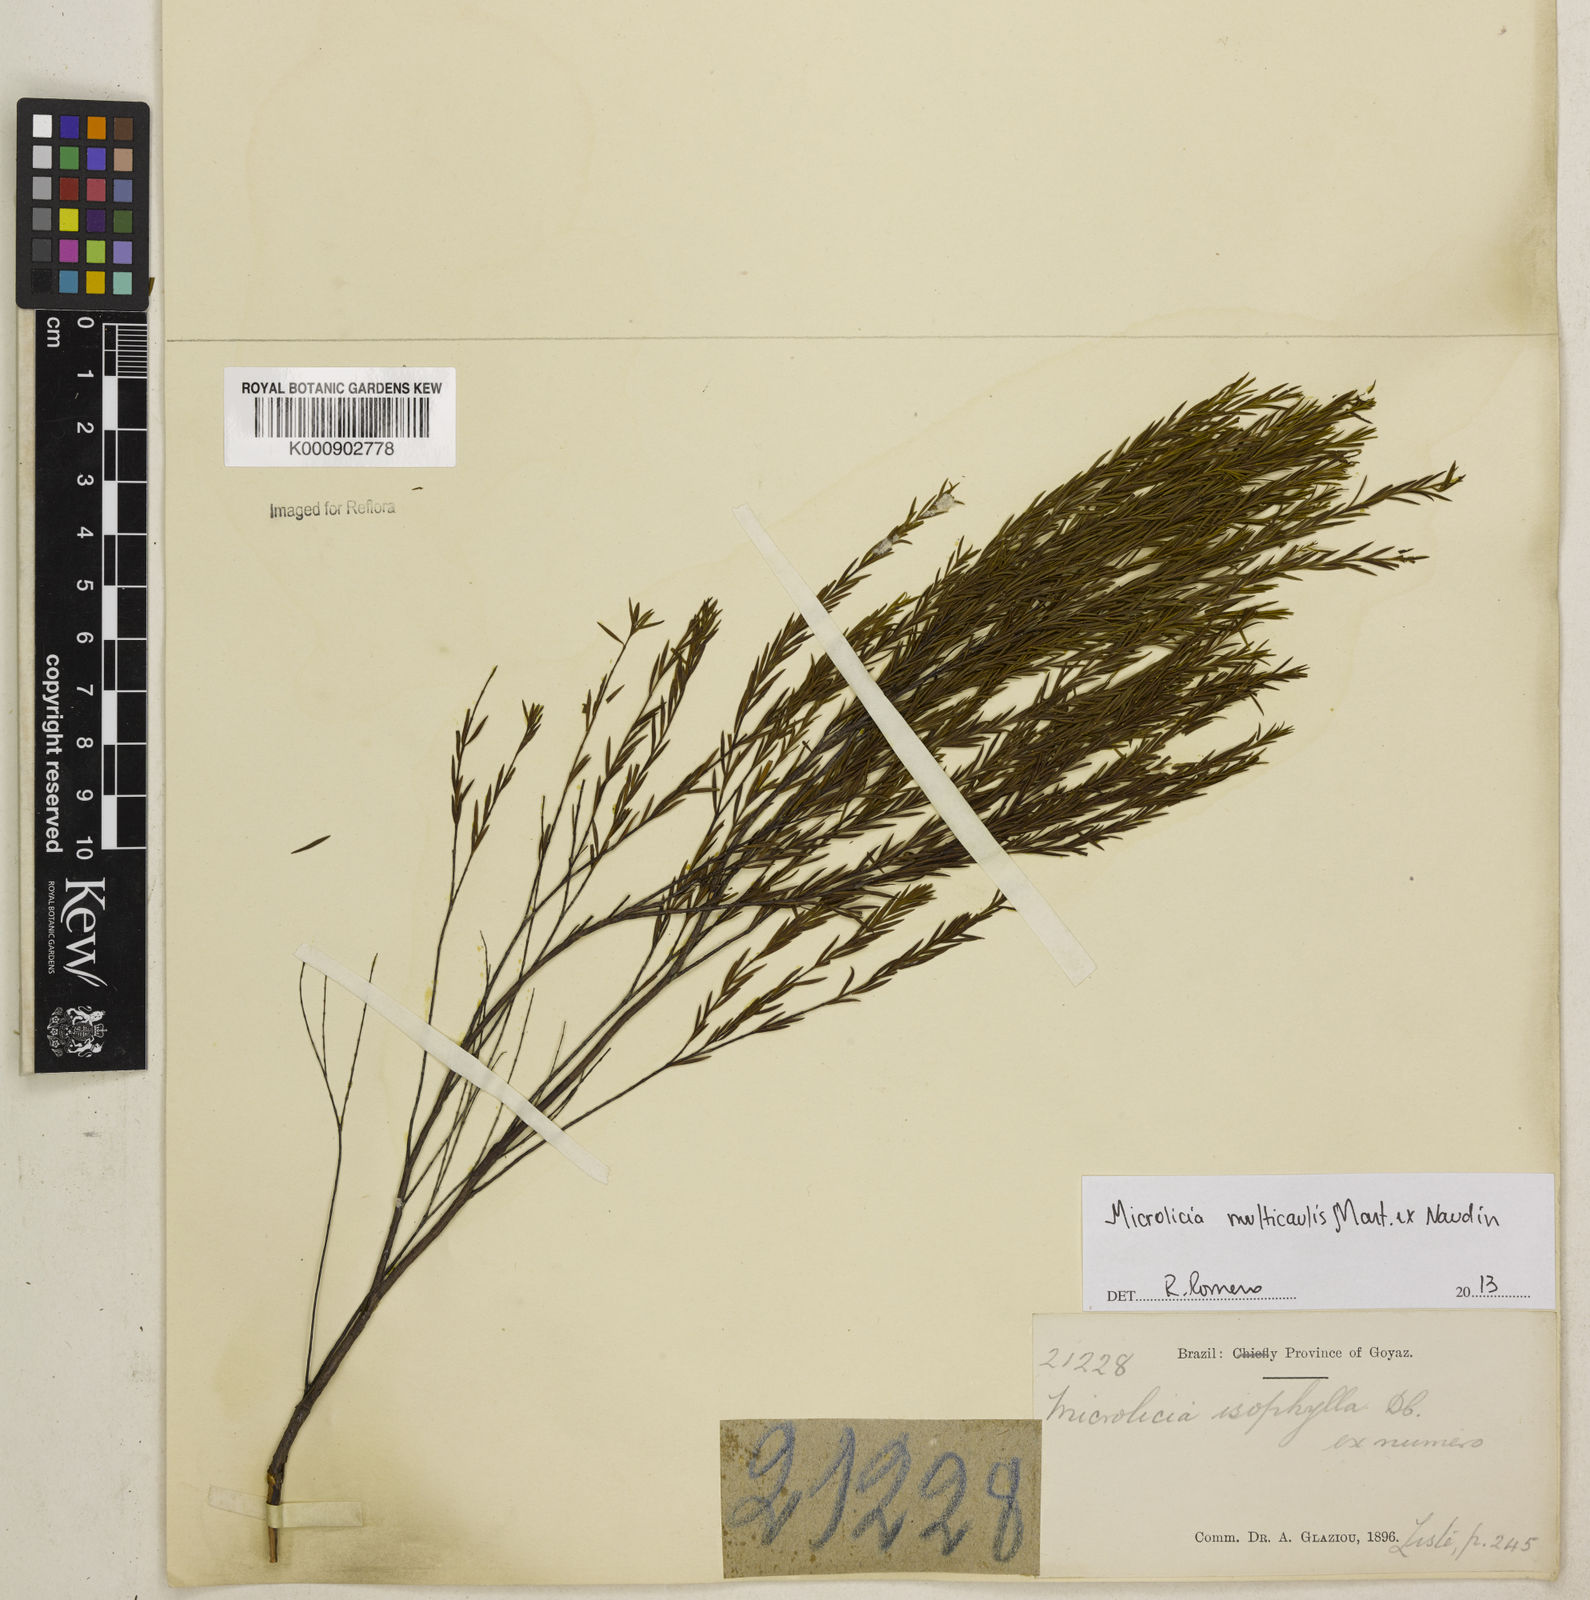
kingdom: Plantae
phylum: Tracheophyta
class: Magnoliopsida
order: Myrtales
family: Melastomataceae
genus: Microlicia
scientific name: Microlicia multicaulis
